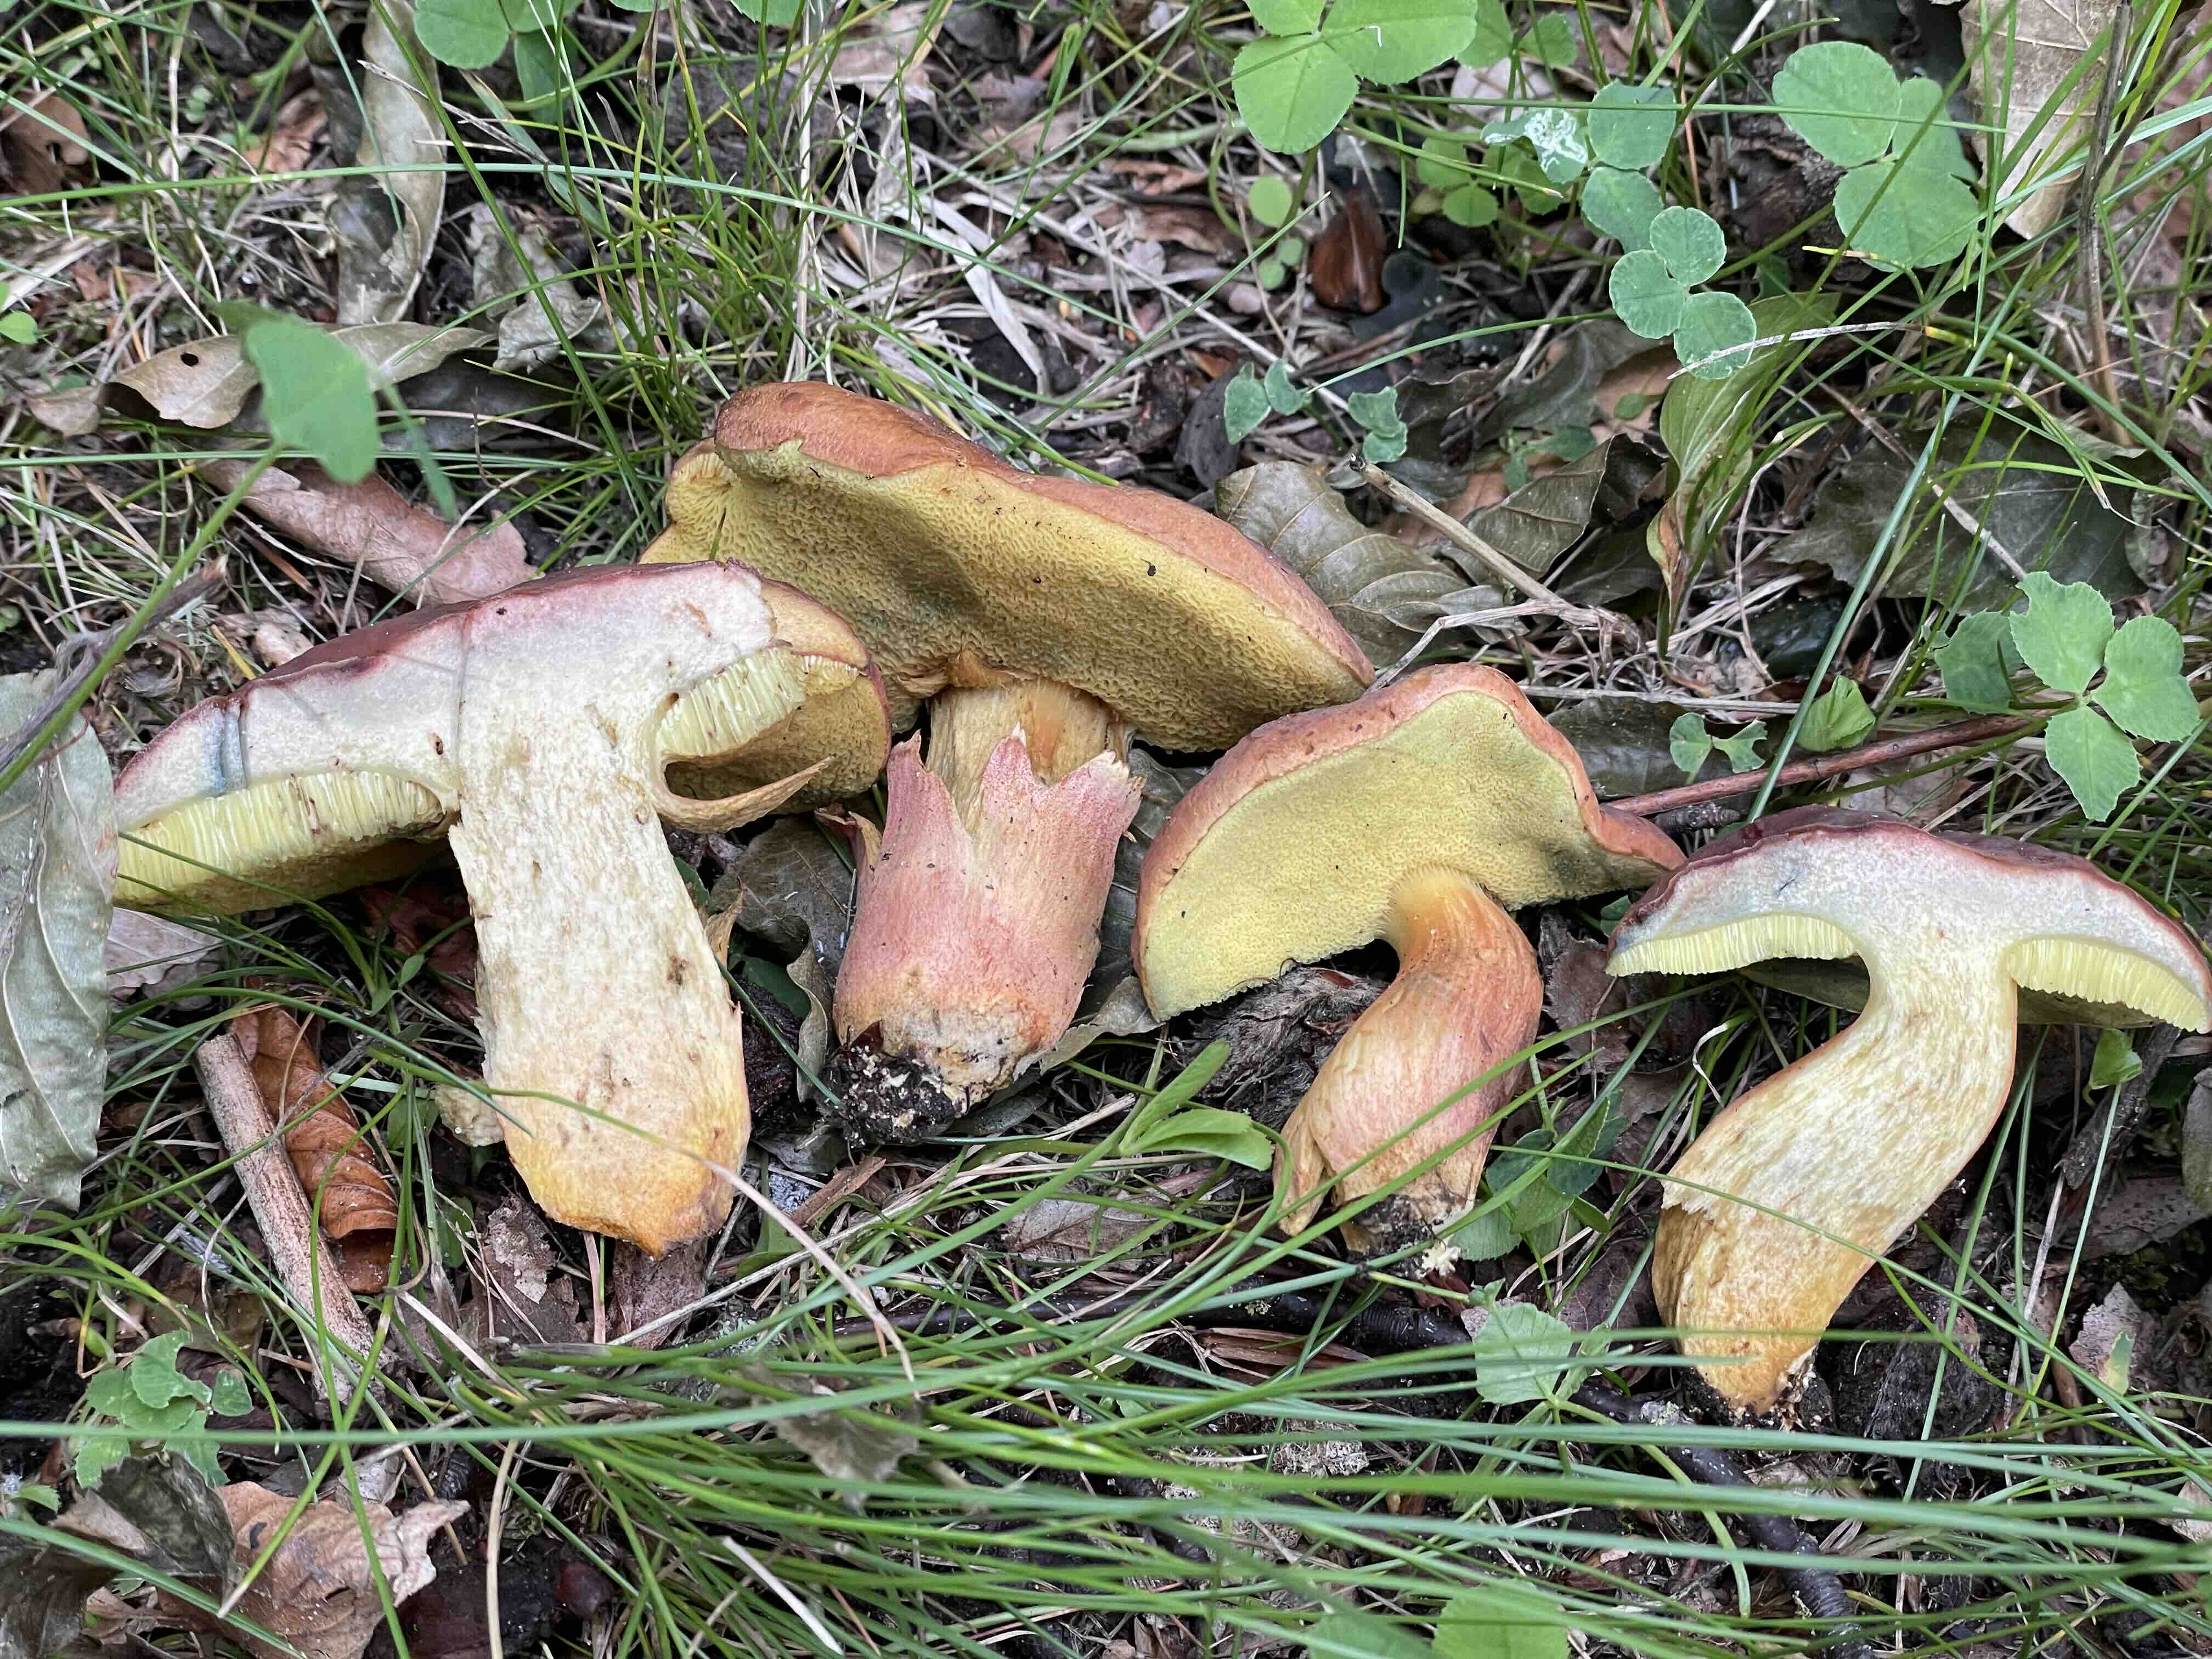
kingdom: Fungi
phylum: Basidiomycota
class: Agaricomycetes
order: Boletales
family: Boletaceae
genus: Hortiboletus
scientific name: Hortiboletus rubellus
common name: blodrød rørhat
